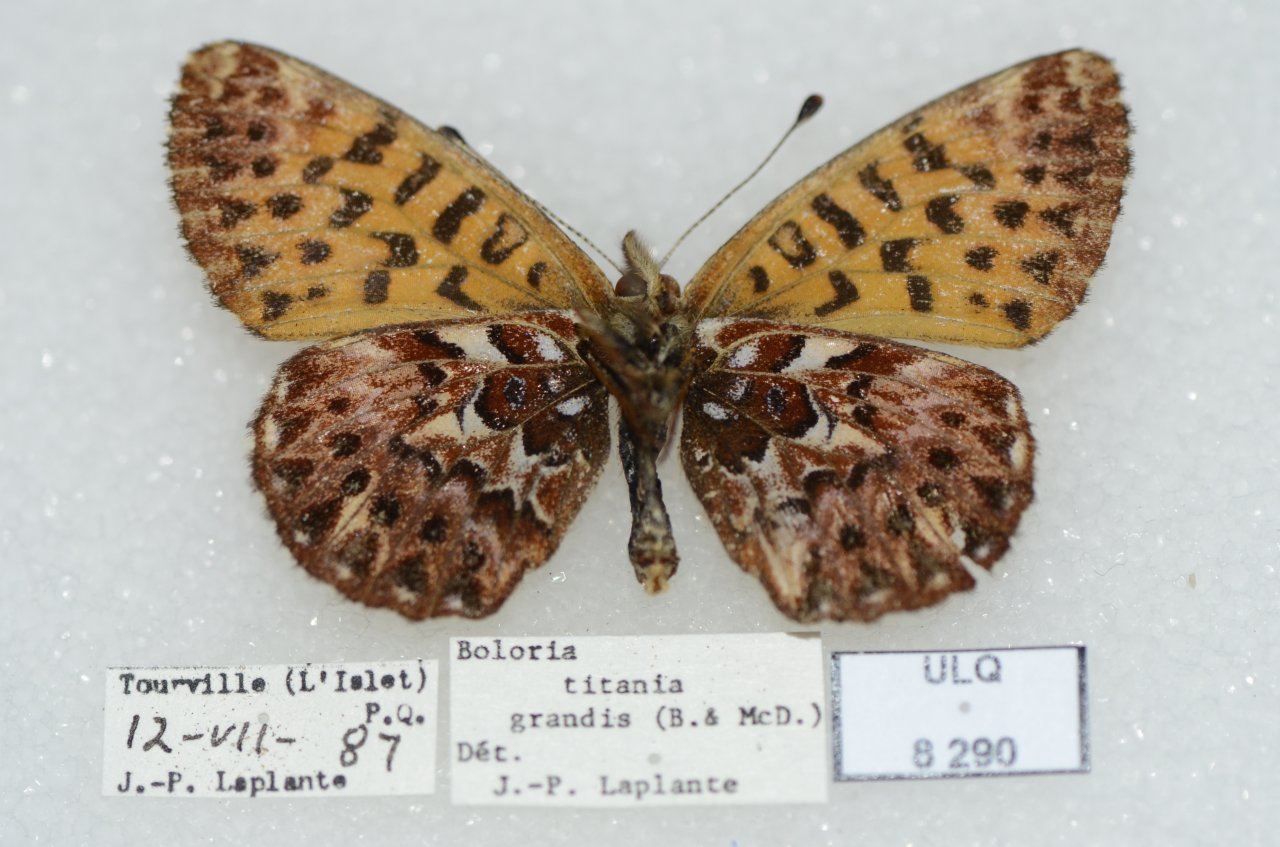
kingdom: Animalia
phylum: Arthropoda
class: Insecta
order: Lepidoptera
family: Nymphalidae
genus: Boloria
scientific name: Boloria chariclea
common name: Arctic Fritillary
